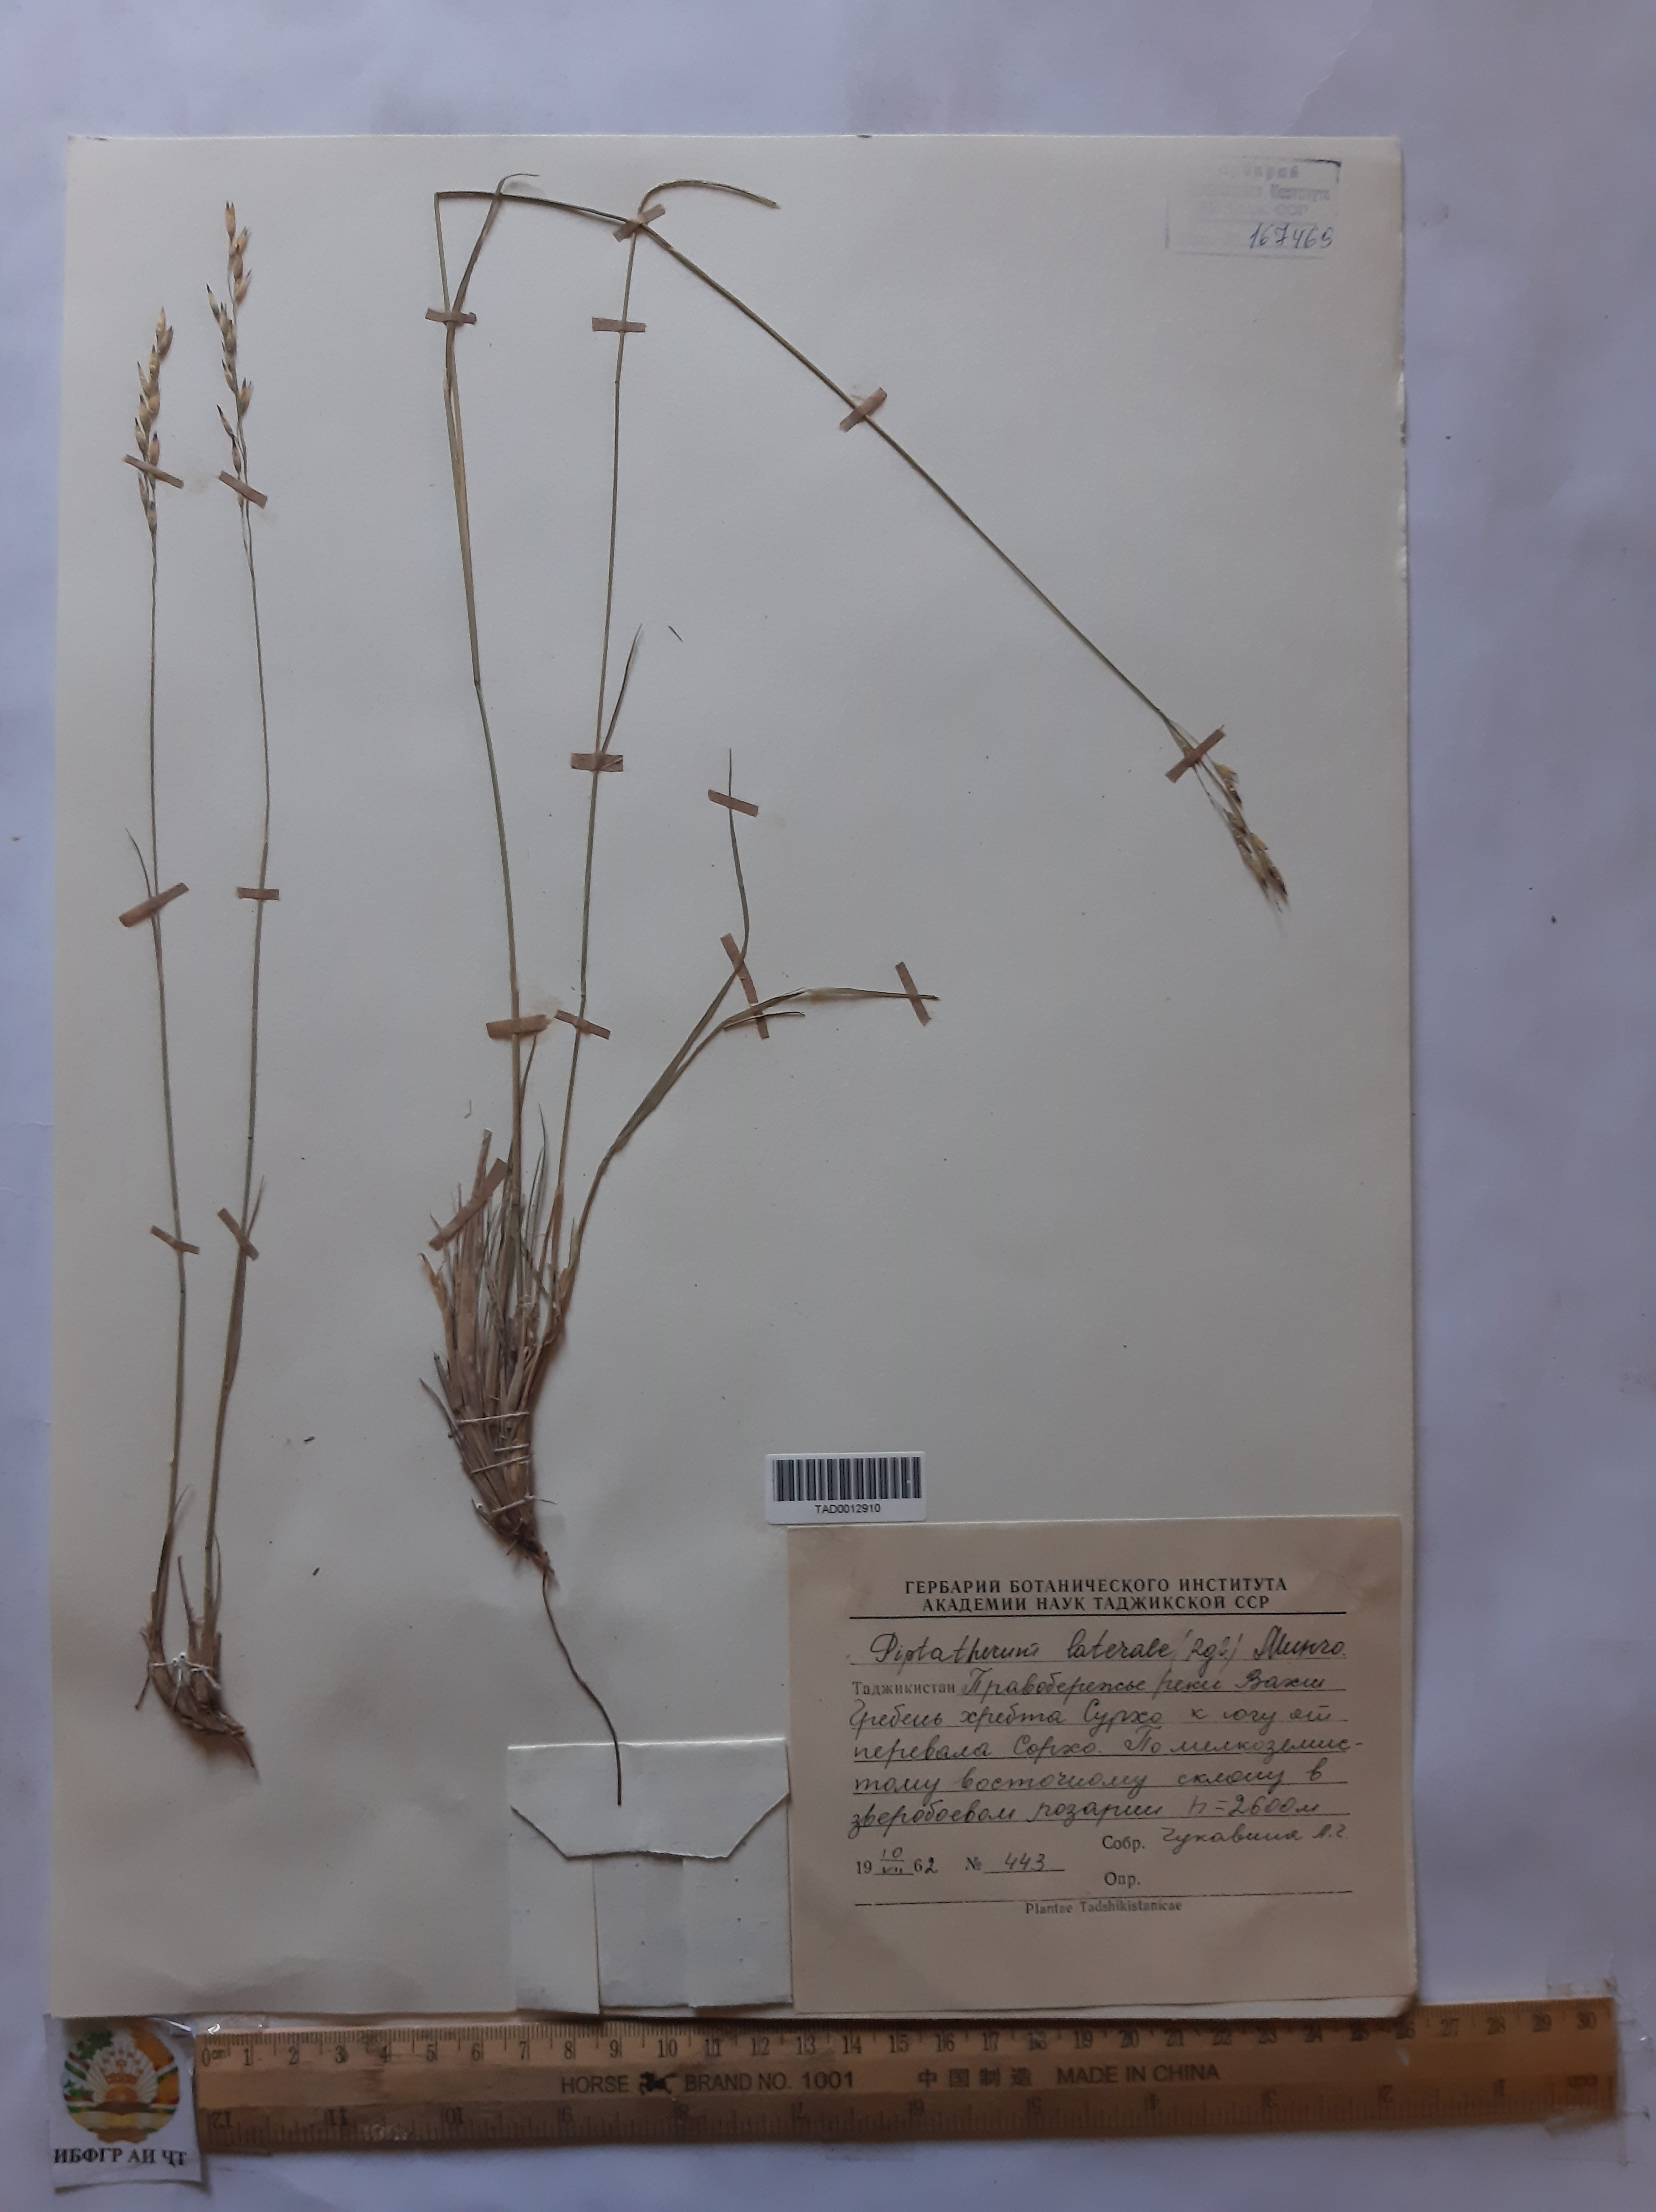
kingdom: Plantae
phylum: Tracheophyta
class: Liliopsida
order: Poales
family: Poaceae
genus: Piptatherum
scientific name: Piptatherum laterale
